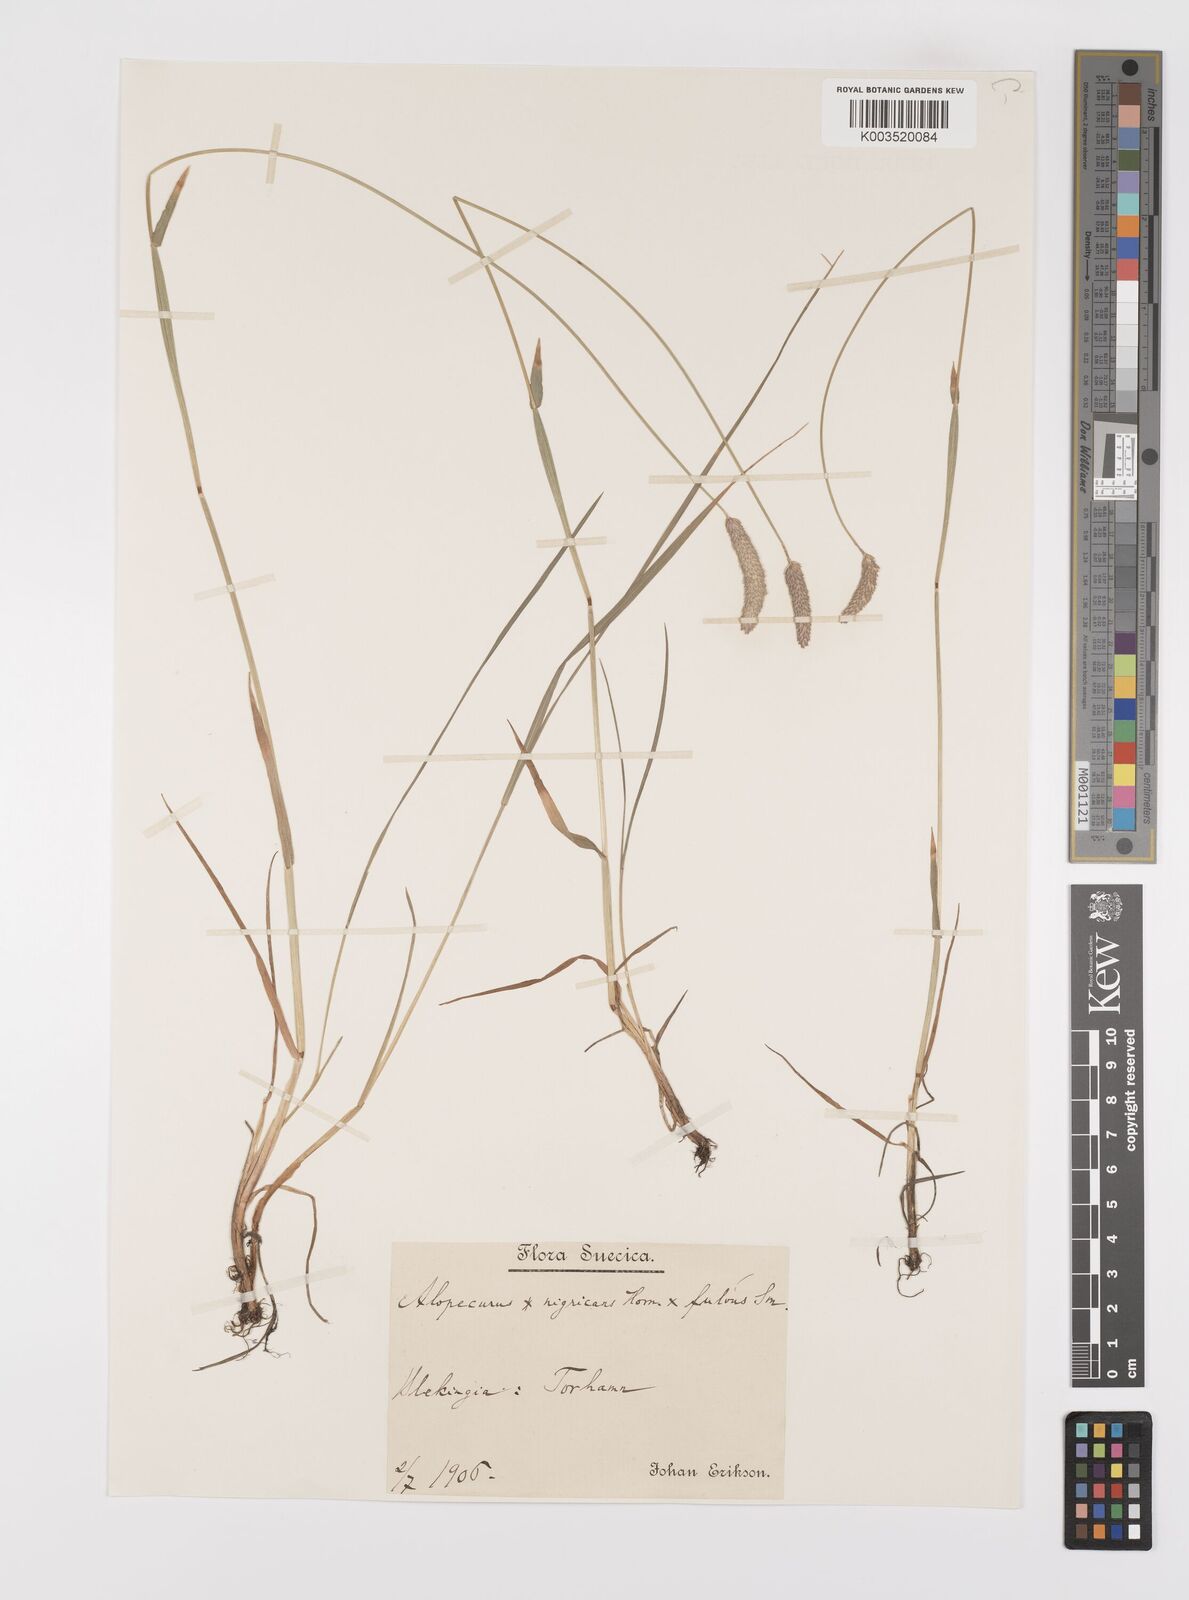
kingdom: Plantae
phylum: Tracheophyta
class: Liliopsida
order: Poales
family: Poaceae
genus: Alopecurus
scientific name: Alopecurus aequalis
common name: Orange foxtail
